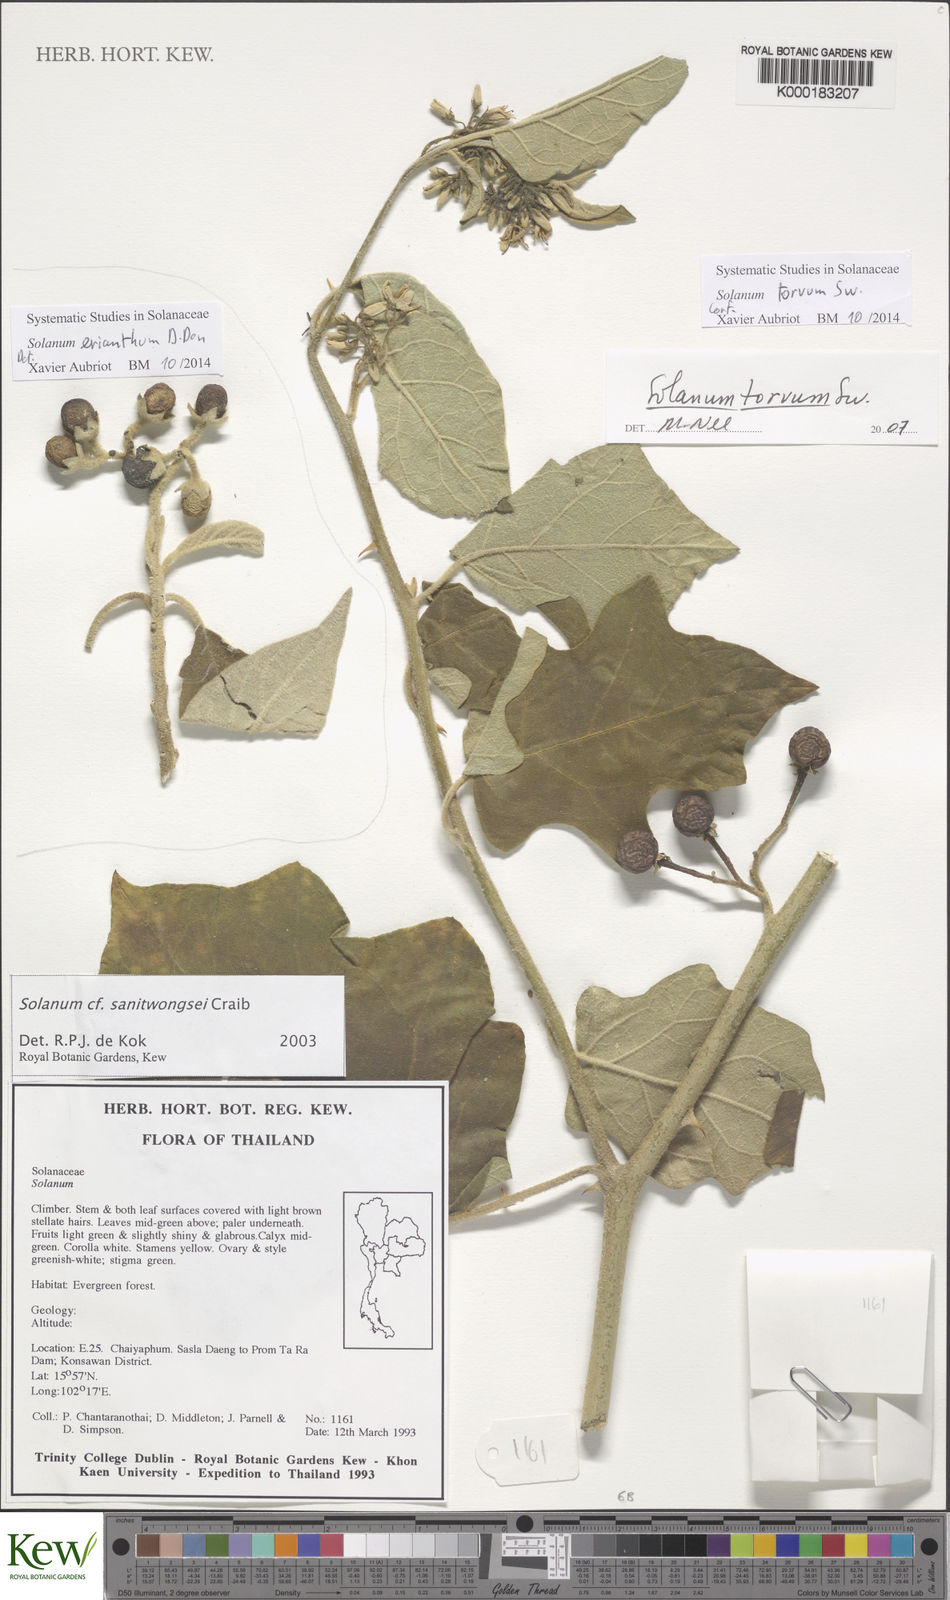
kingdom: Plantae
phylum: Tracheophyta
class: Magnoliopsida
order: Solanales
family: Solanaceae
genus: Solanum
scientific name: Solanum violaceum
